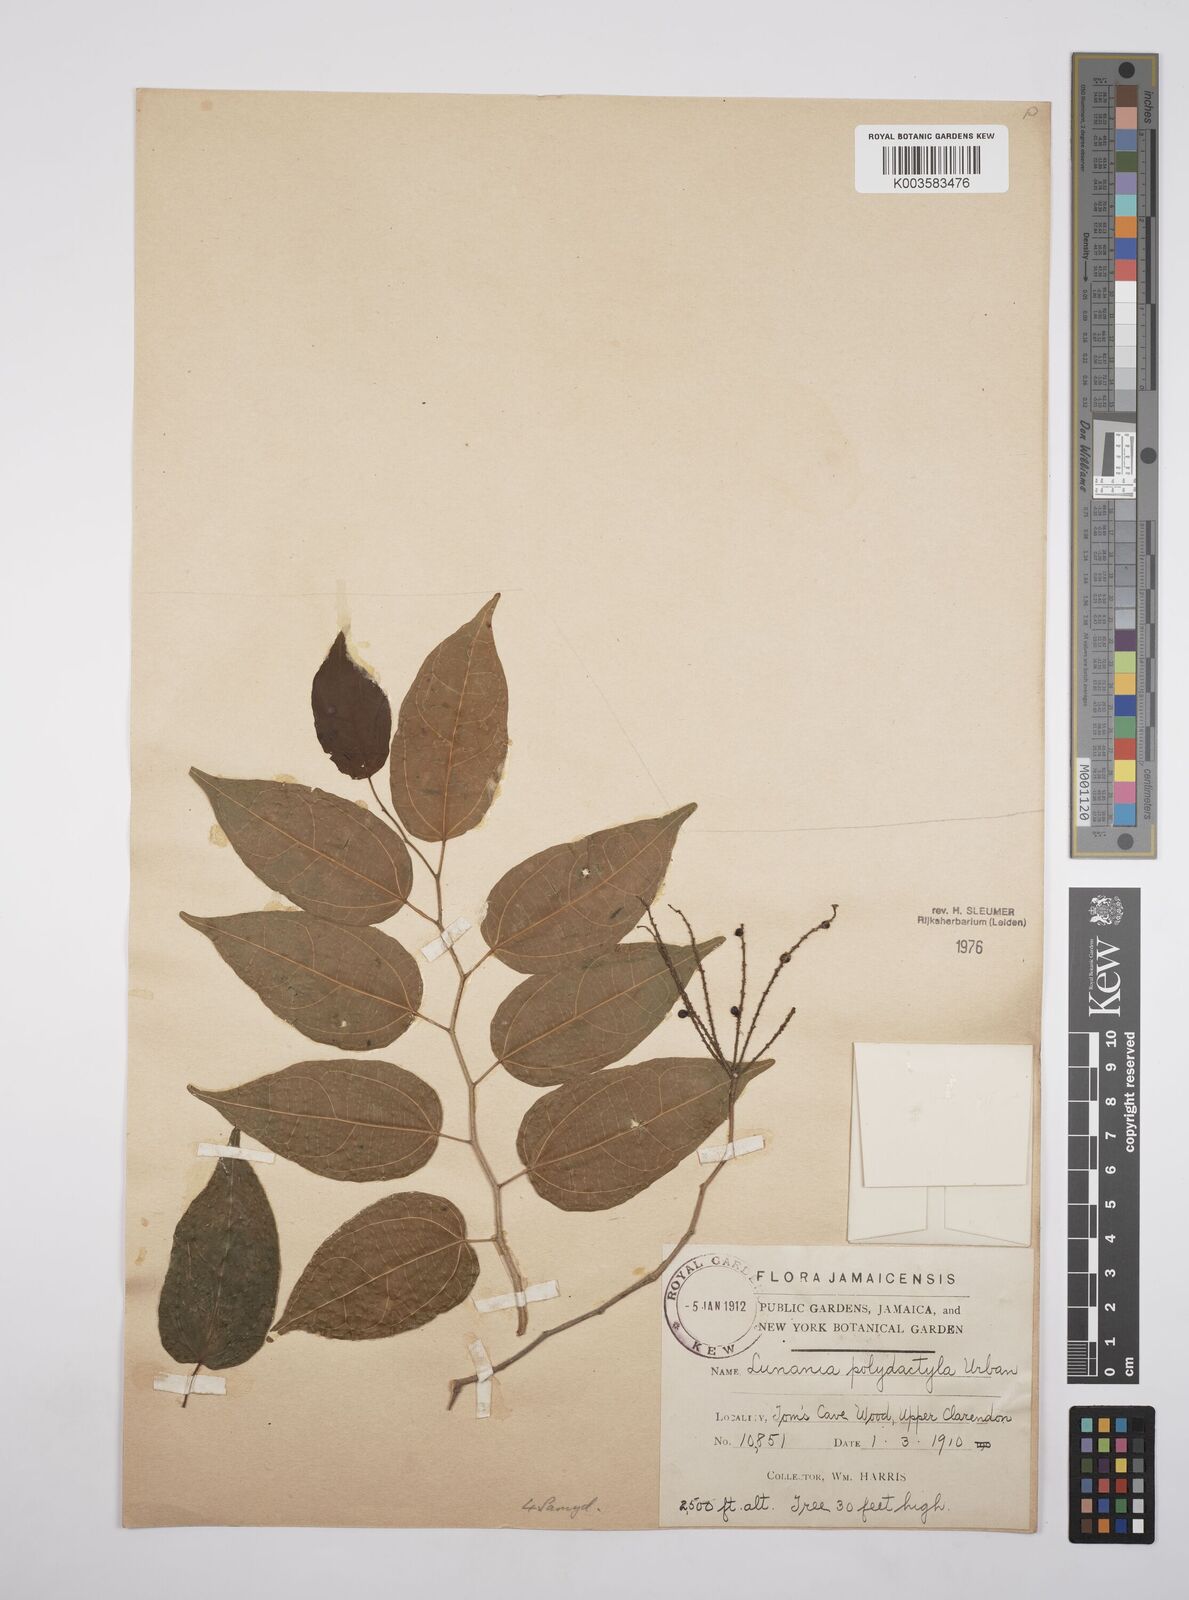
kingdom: Plantae
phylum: Tracheophyta
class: Magnoliopsida
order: Malpighiales
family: Salicaceae
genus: Lunania
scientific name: Lunania polydactyla
